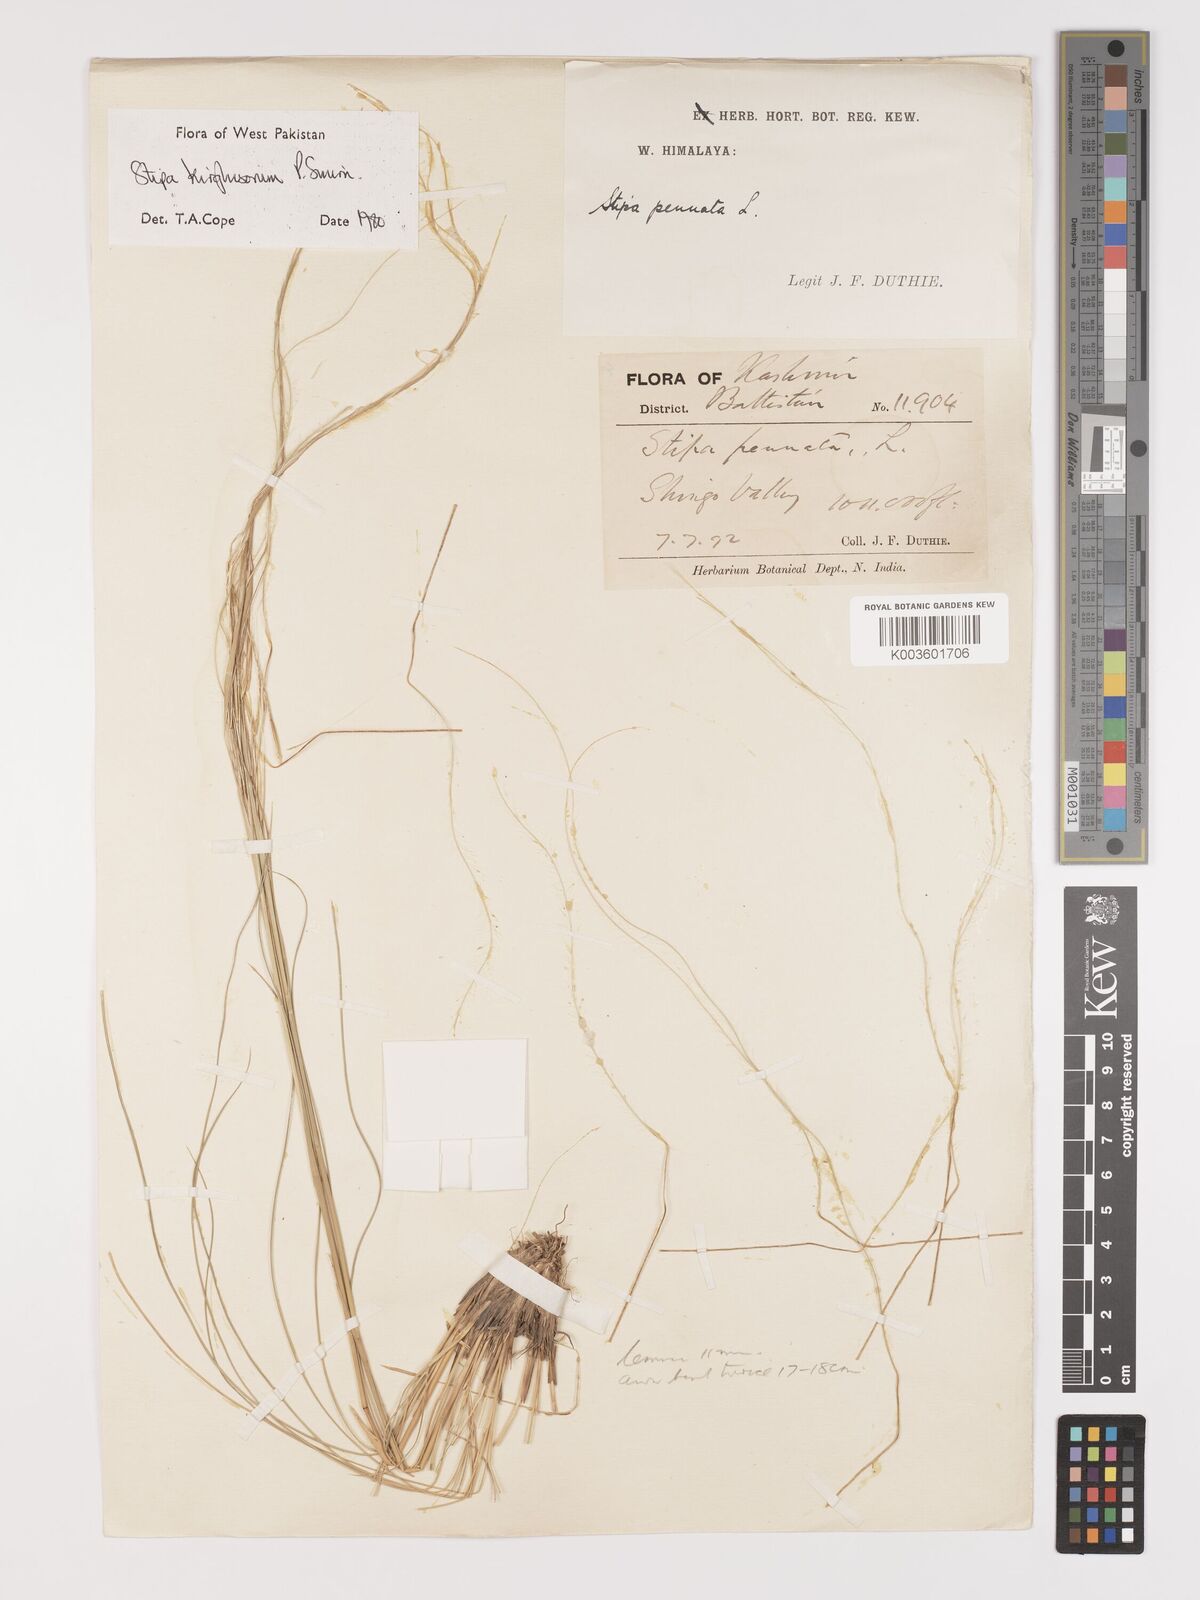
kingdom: Plantae
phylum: Tracheophyta
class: Liliopsida
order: Poales
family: Poaceae
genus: Stipa
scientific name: Stipa kirghisorum
